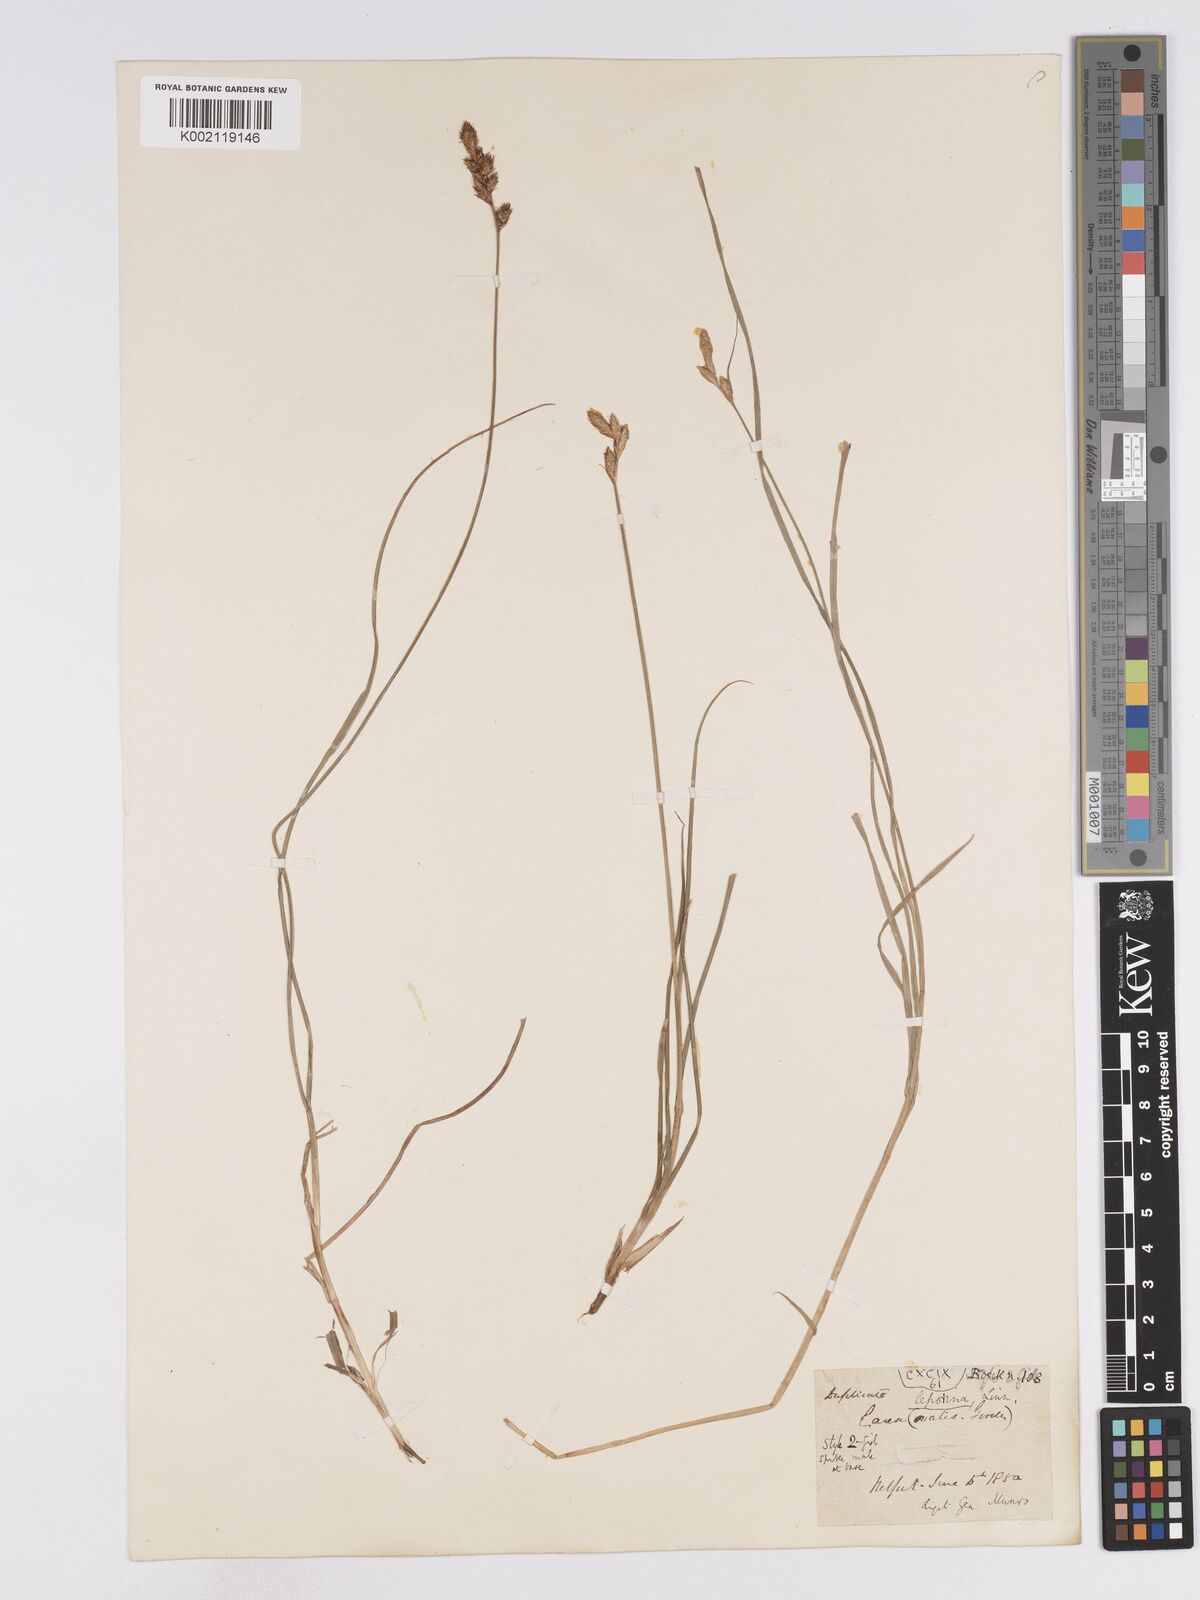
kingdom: Plantae
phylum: Tracheophyta
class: Liliopsida
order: Poales
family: Cyperaceae
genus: Carex
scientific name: Carex leporina
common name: Oval sedge
